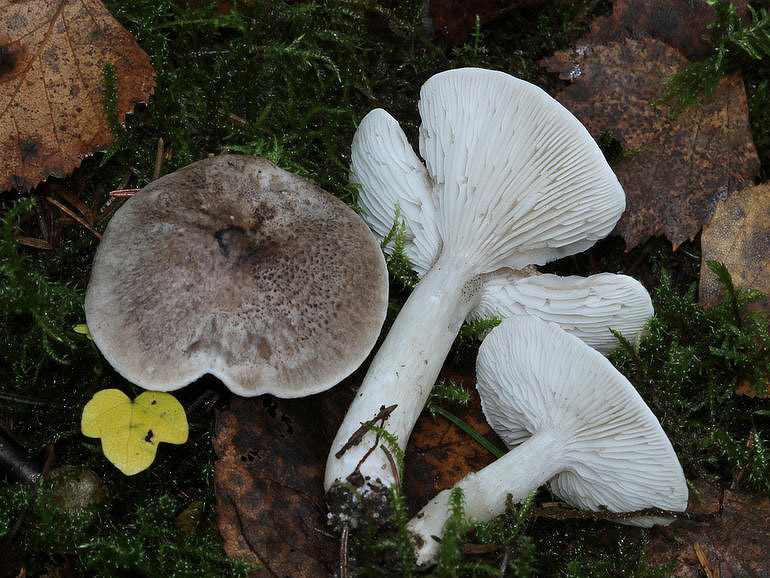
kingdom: Fungi
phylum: Basidiomycota
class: Agaricomycetes
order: Agaricales
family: Tricholomataceae
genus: Tricholoma
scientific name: Tricholoma scalpturatum
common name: gulplettet ridderhat
